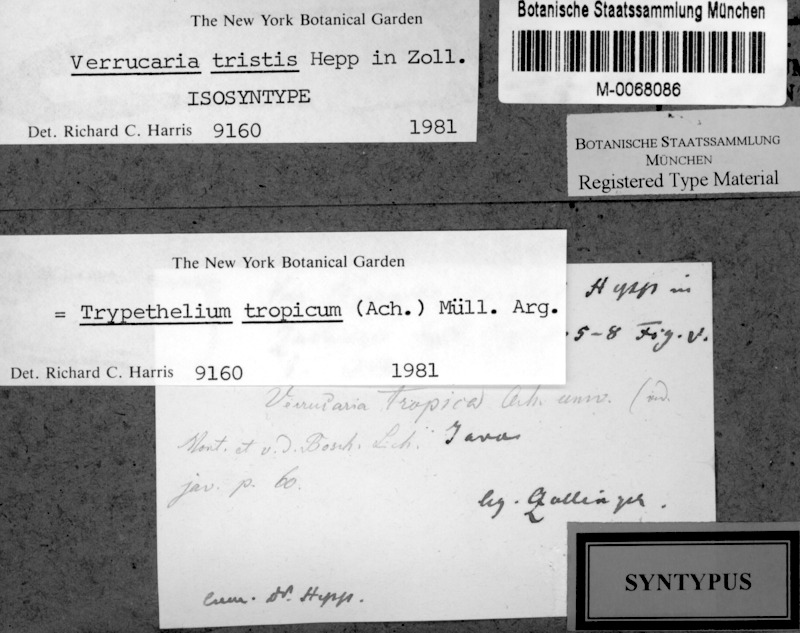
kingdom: Fungi
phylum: Ascomycota
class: Dothideomycetes
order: Trypetheliales
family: Trypetheliaceae
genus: Nigrovothelium
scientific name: Nigrovothelium tropicum
